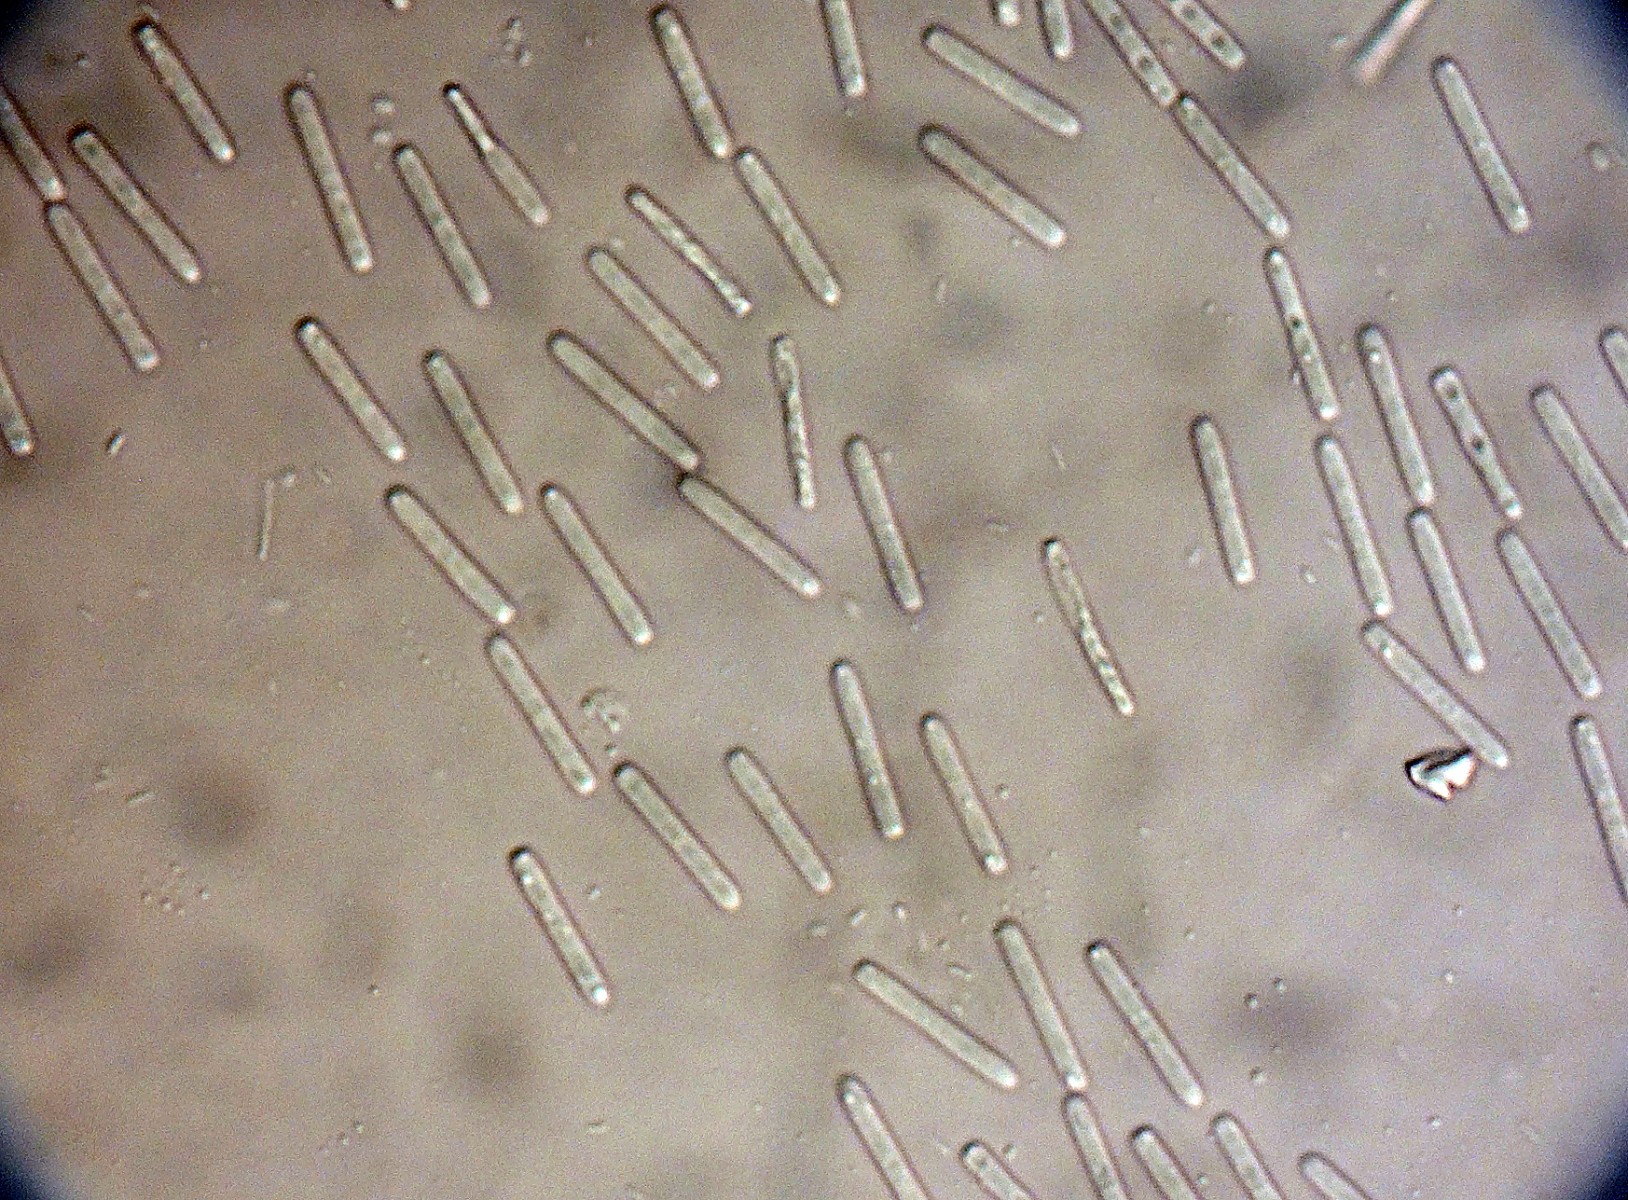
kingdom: Fungi
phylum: Ascomycota
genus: Pseudocenangium
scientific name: Pseudocenangium succineum
